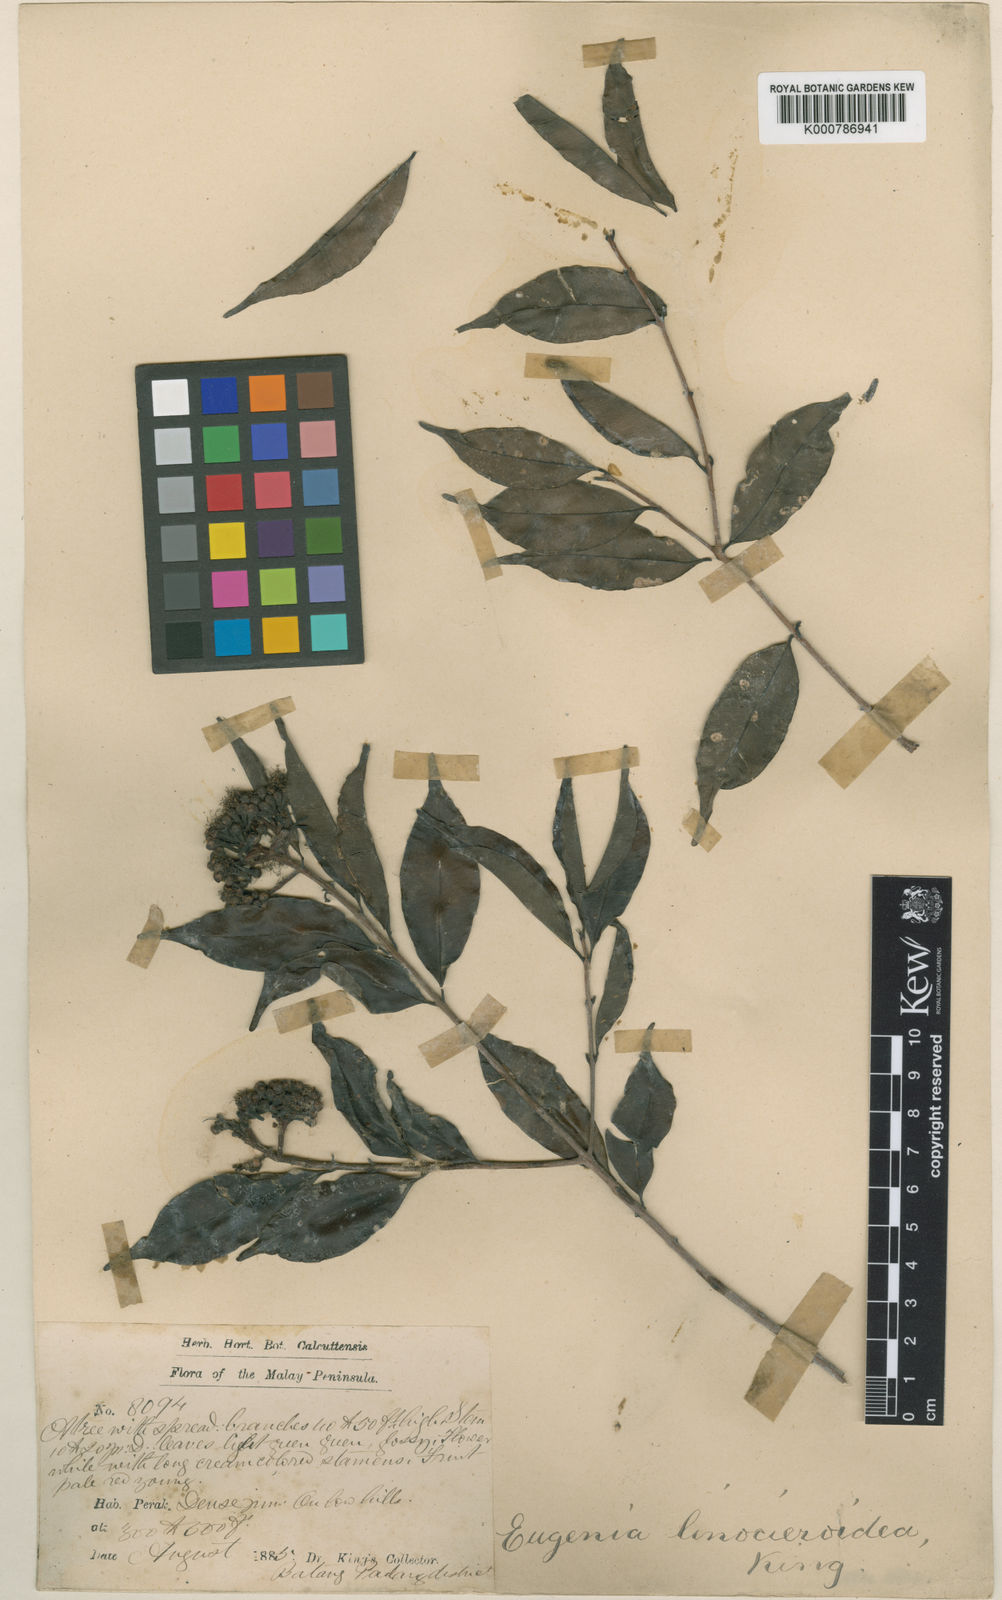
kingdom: Plantae
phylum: Tracheophyta
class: Magnoliopsida
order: Myrtales
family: Myrtaceae
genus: Syzygium
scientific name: Syzygium linocieroideum
